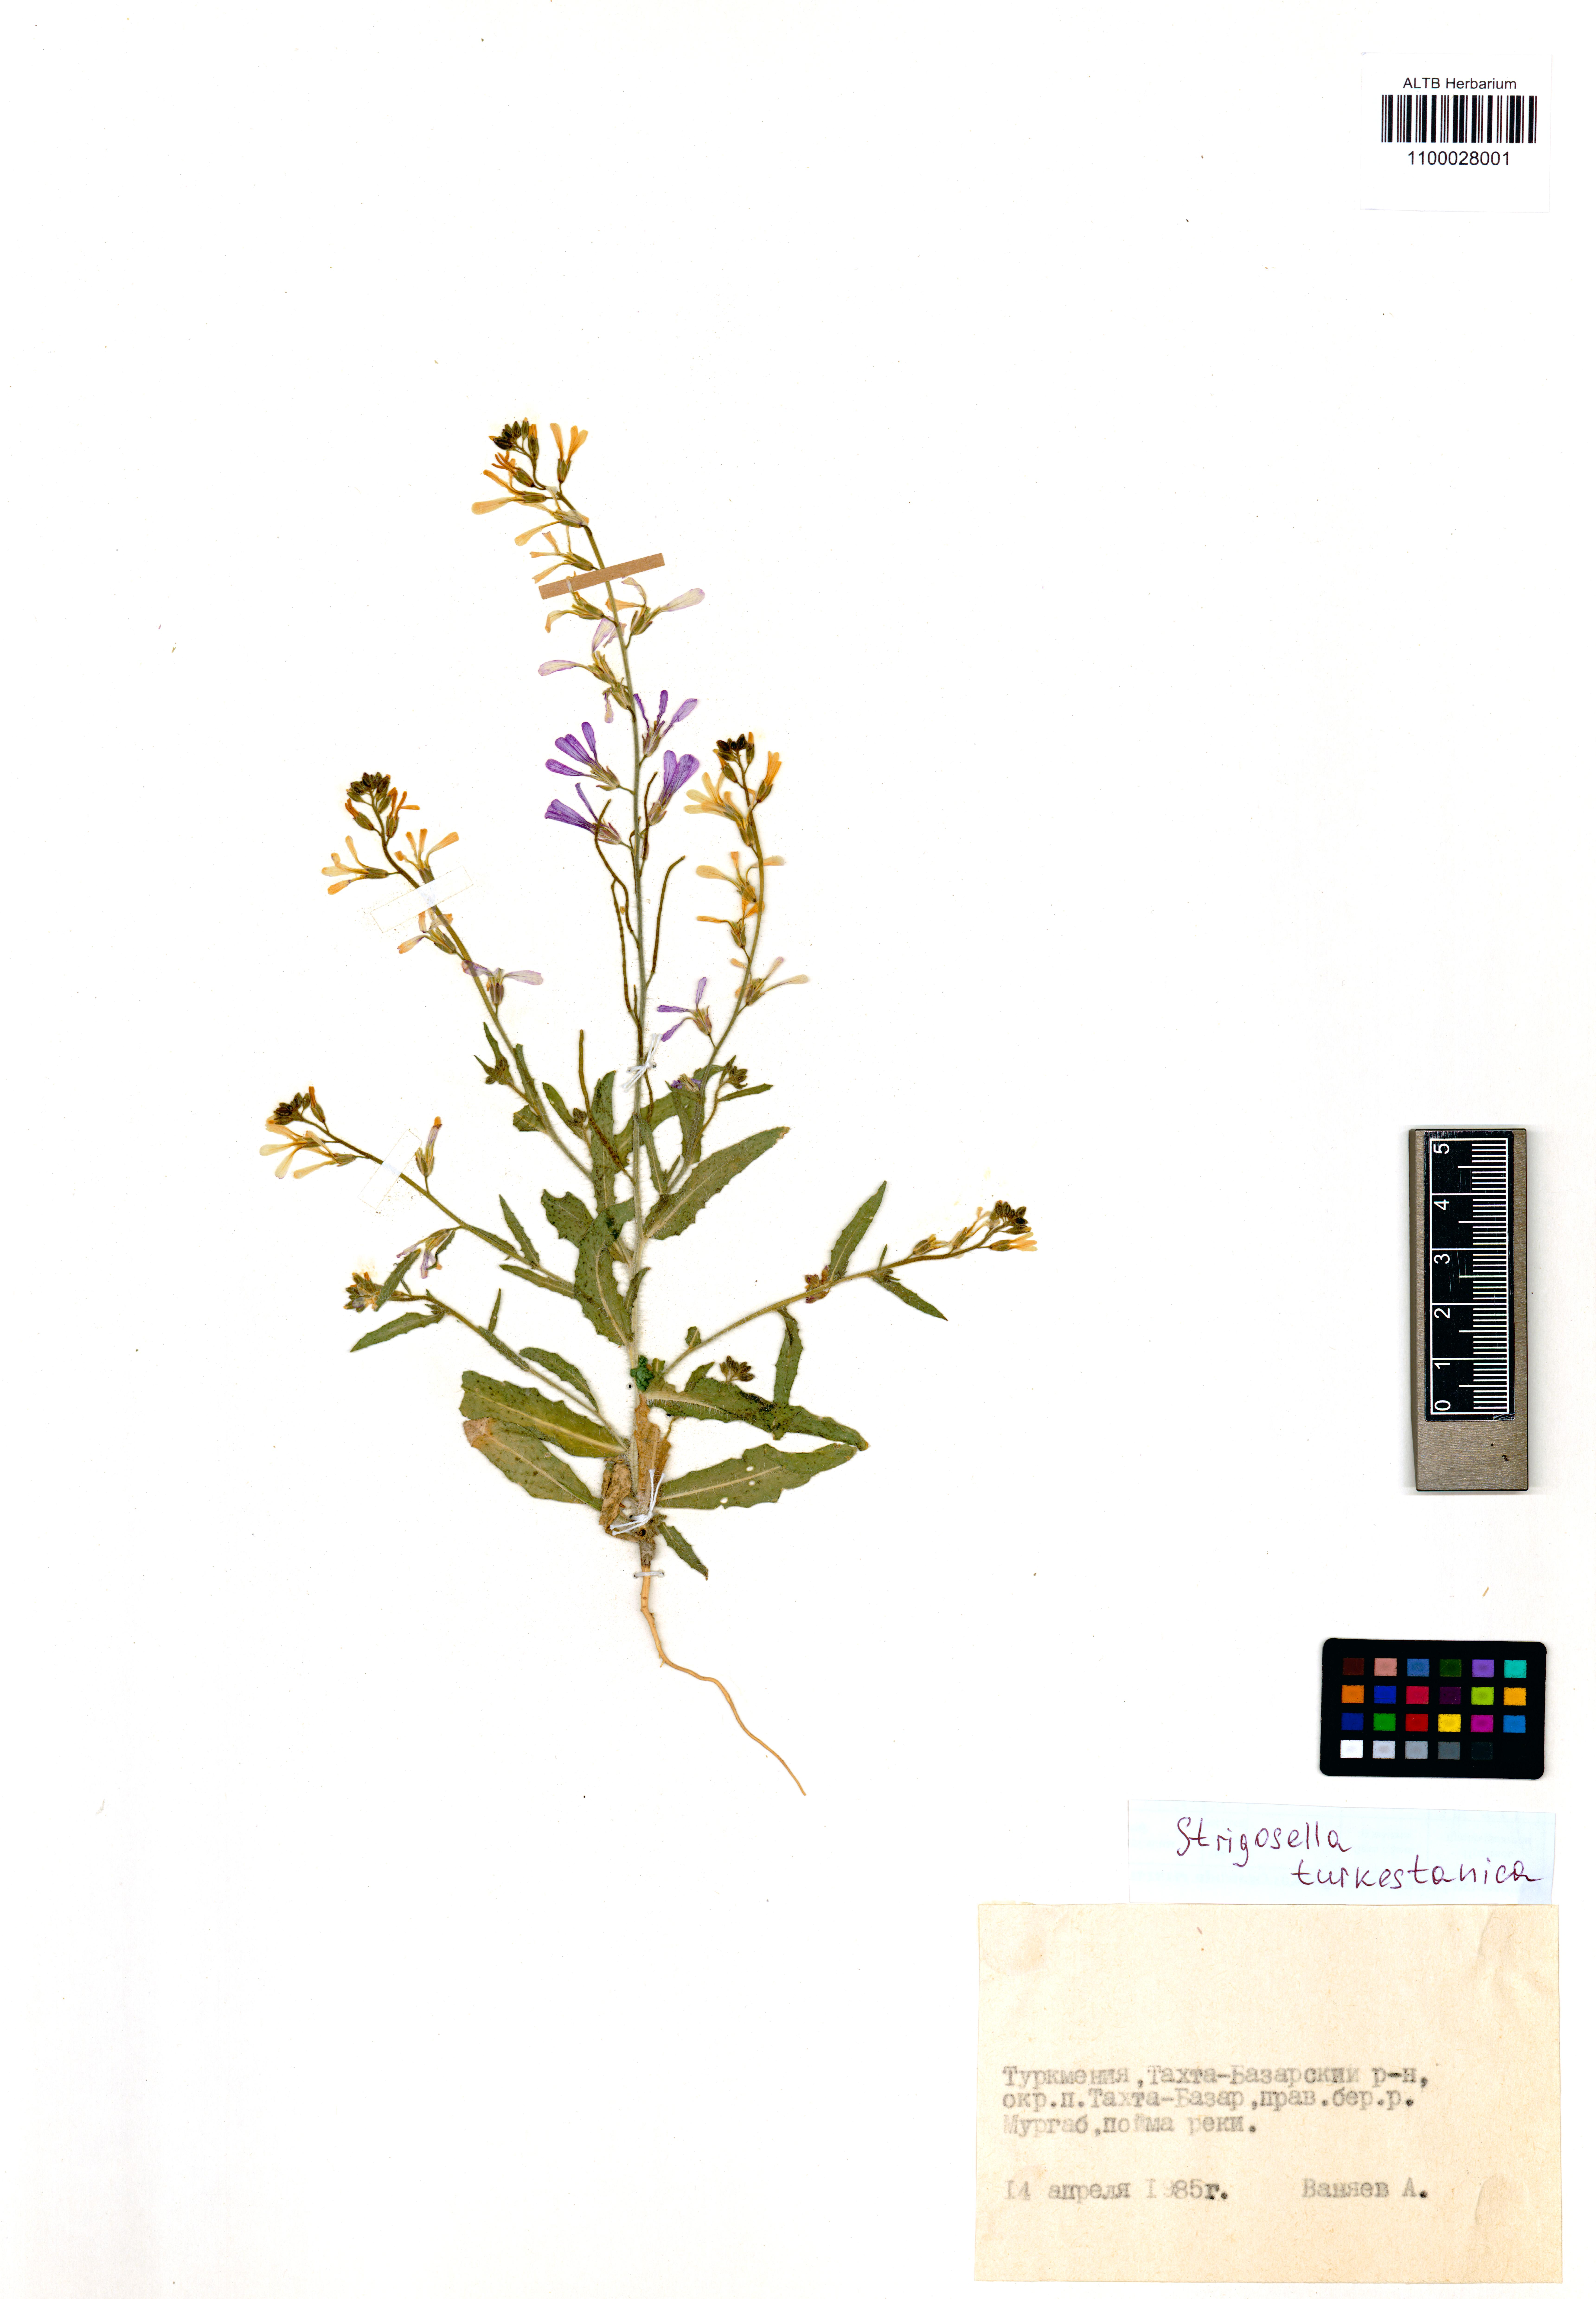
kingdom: Plantae
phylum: Tracheophyta
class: Magnoliopsida
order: Brassicales
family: Brassicaceae
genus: Strigosella
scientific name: Strigosella turkestanica
